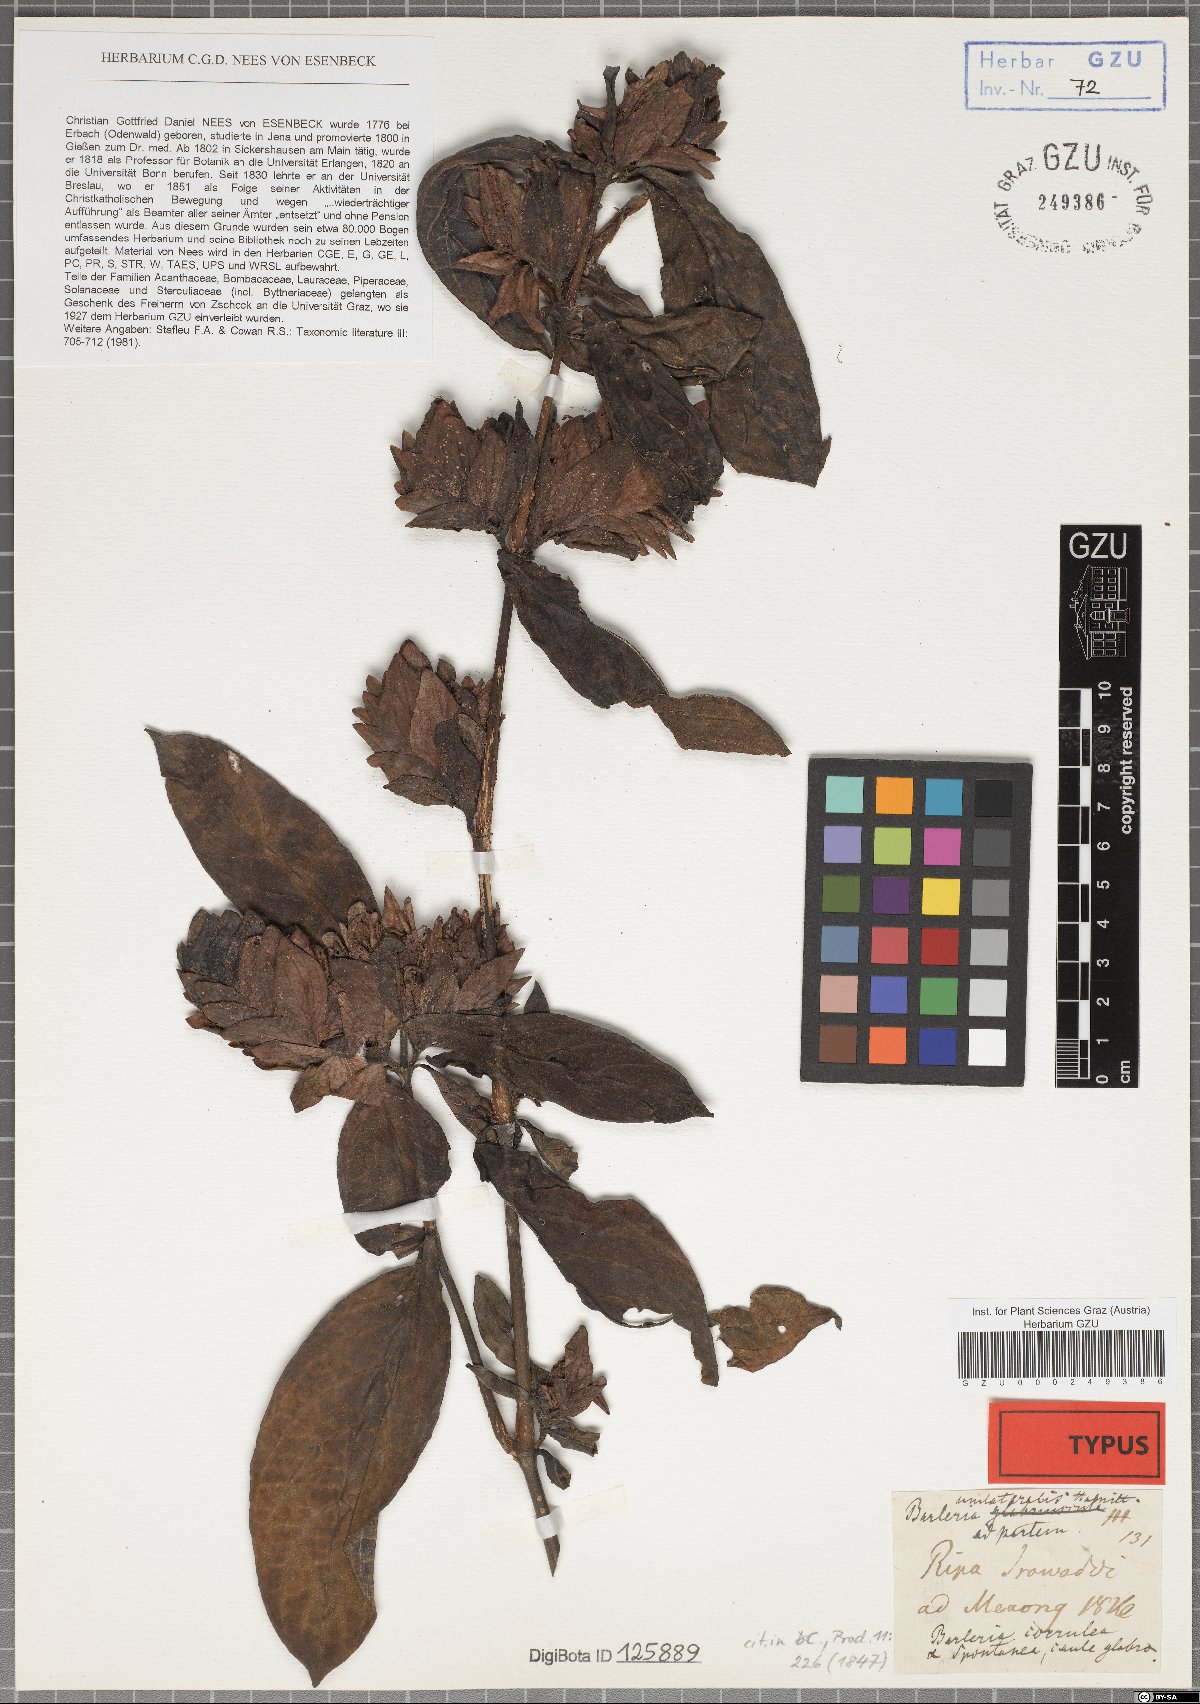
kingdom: Plantae
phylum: Tracheophyta
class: Magnoliopsida
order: Lamiales
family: Acanthaceae
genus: Barleria
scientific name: Barleria strigosa
